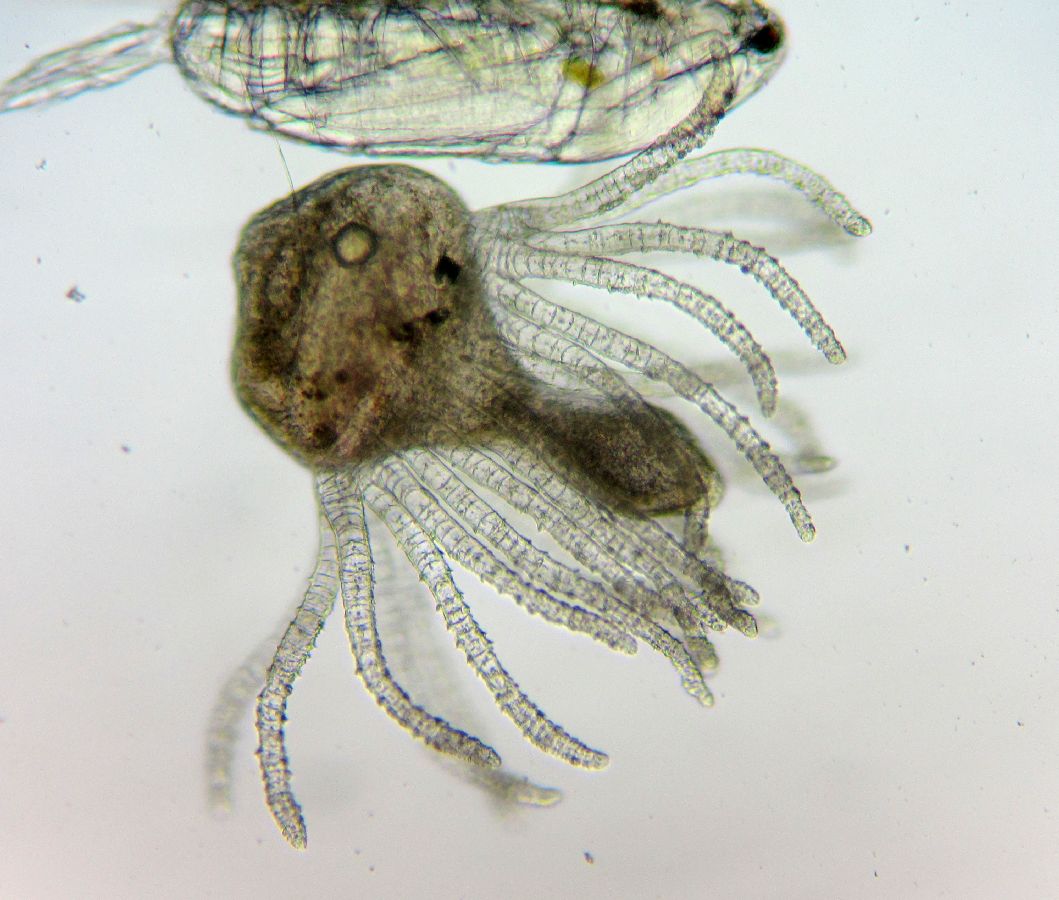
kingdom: Animalia
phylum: Cnidaria
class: Hydrozoa
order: Anthoathecata
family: Tubulariidae
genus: Ectopleura
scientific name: Ectopleura larynx
